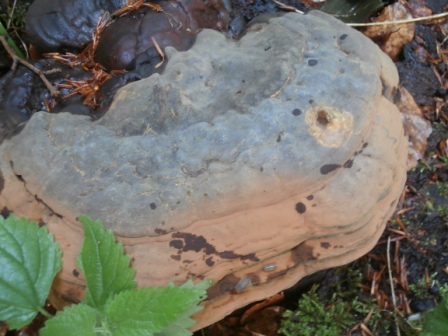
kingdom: Fungi
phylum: Basidiomycota
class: Agaricomycetes
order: Polyporales
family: Polyporaceae
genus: Ganoderma
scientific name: Ganoderma pfeifferi
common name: kobberrød lakporesvamp
